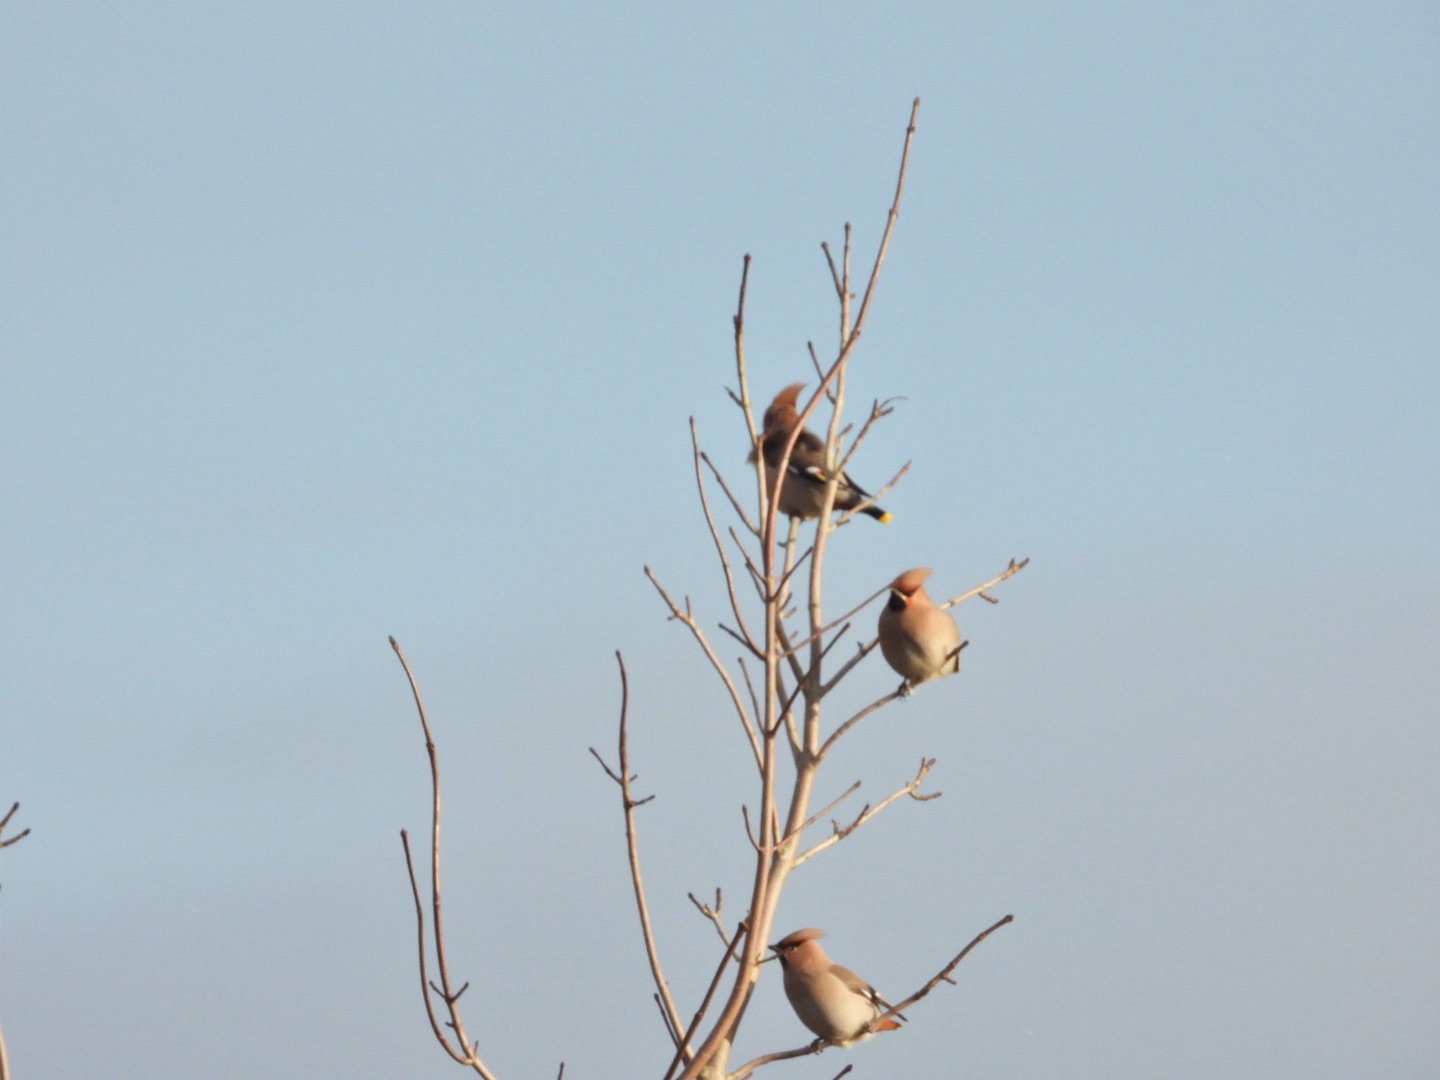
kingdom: Animalia
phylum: Chordata
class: Aves
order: Passeriformes
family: Bombycillidae
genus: Bombycilla
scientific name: Bombycilla garrulus
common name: Silkehale
